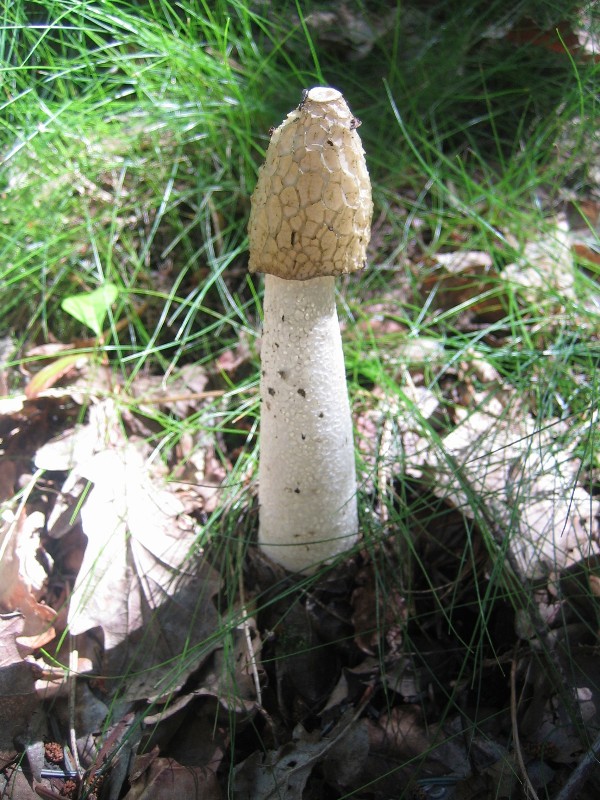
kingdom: Fungi
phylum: Basidiomycota
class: Agaricomycetes
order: Phallales
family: Phallaceae
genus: Phallus
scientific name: Phallus impudicus
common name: almindelig stinksvamp
